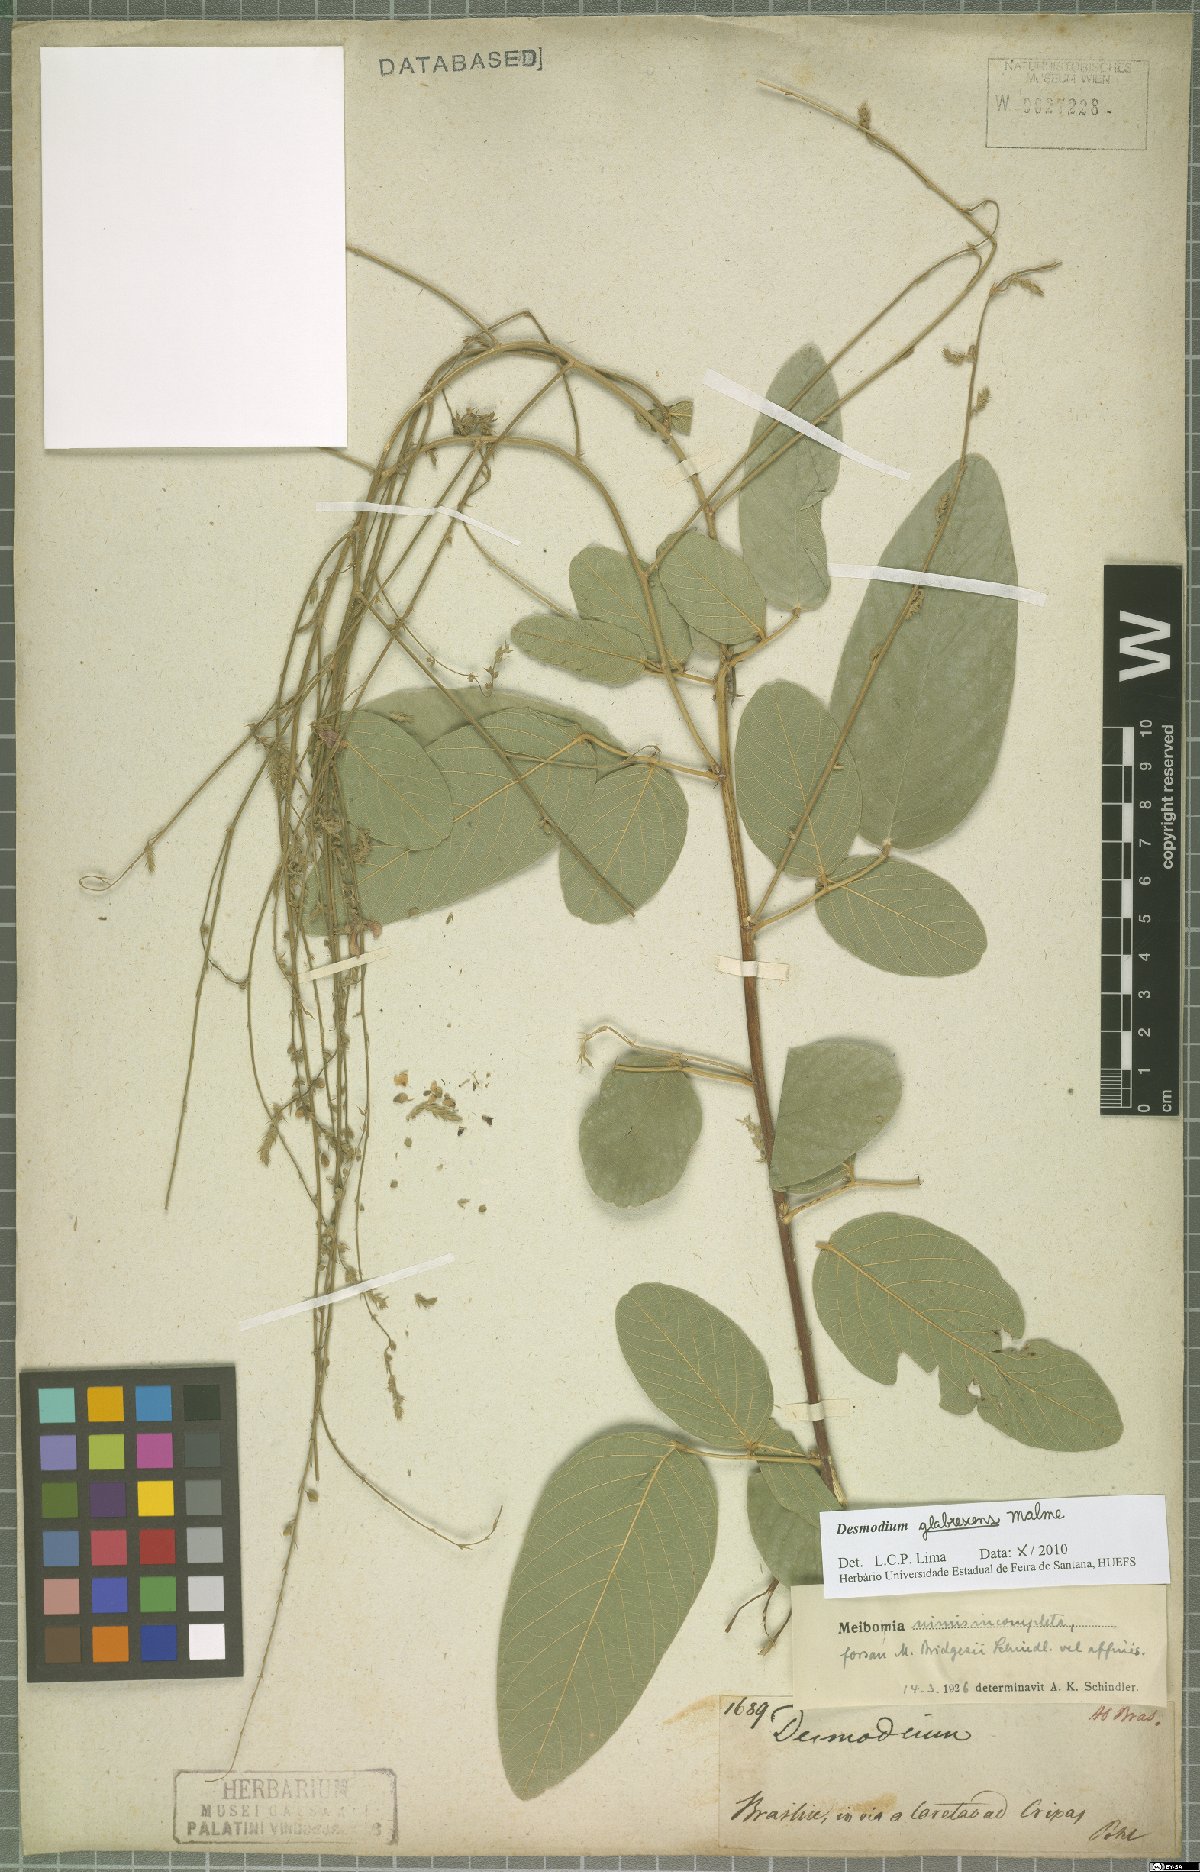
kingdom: Plantae
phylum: Tracheophyta
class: Magnoliopsida
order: Fabales
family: Fabaceae
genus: Desmodium
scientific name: Desmodium glabrescens
